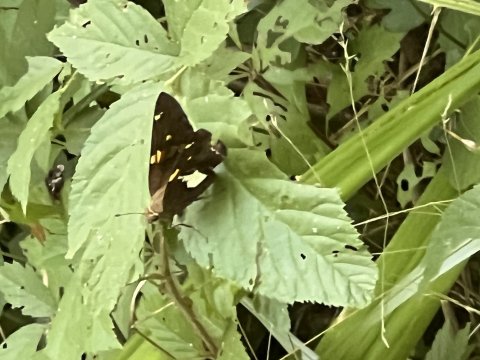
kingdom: Animalia
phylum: Arthropoda
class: Insecta
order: Lepidoptera
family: Hesperiidae
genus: Epargyreus
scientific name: Epargyreus clarus
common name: Silver-spotted Skipper
